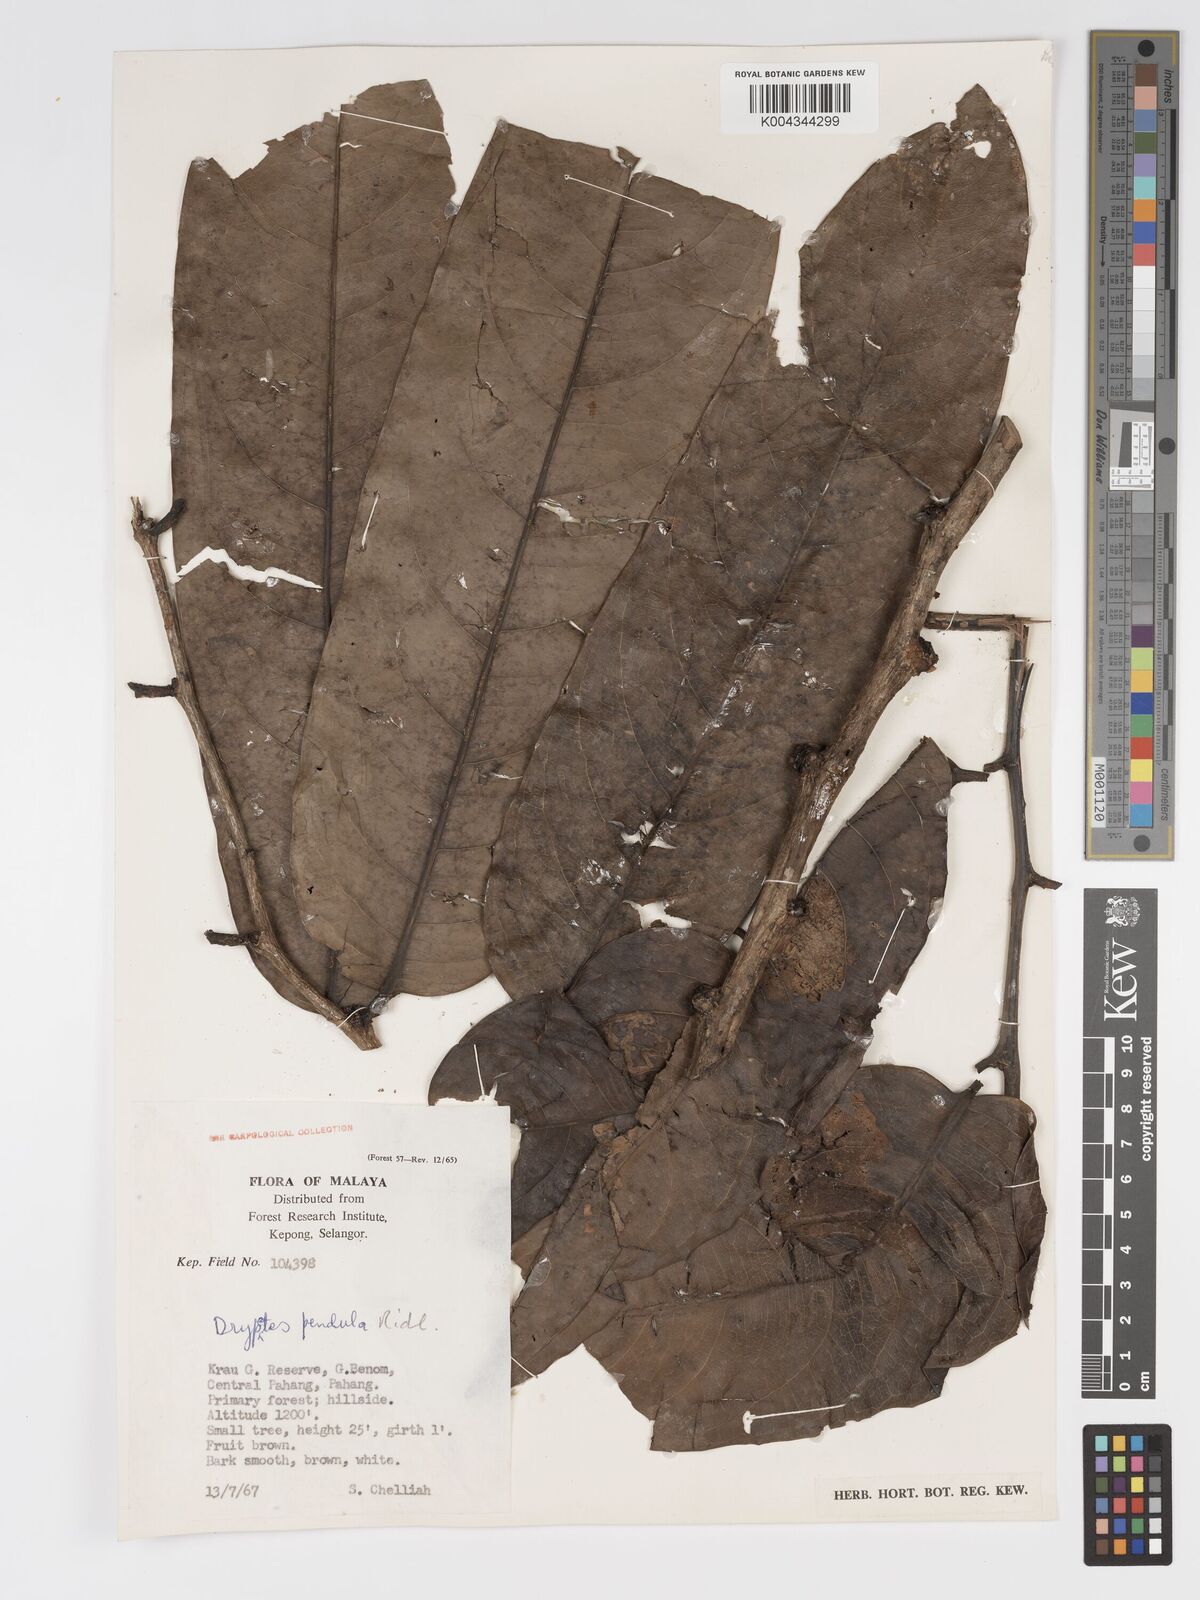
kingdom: Plantae
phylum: Tracheophyta
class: Magnoliopsida
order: Malpighiales
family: Putranjivaceae
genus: Drypetes
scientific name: Drypetes pendula
